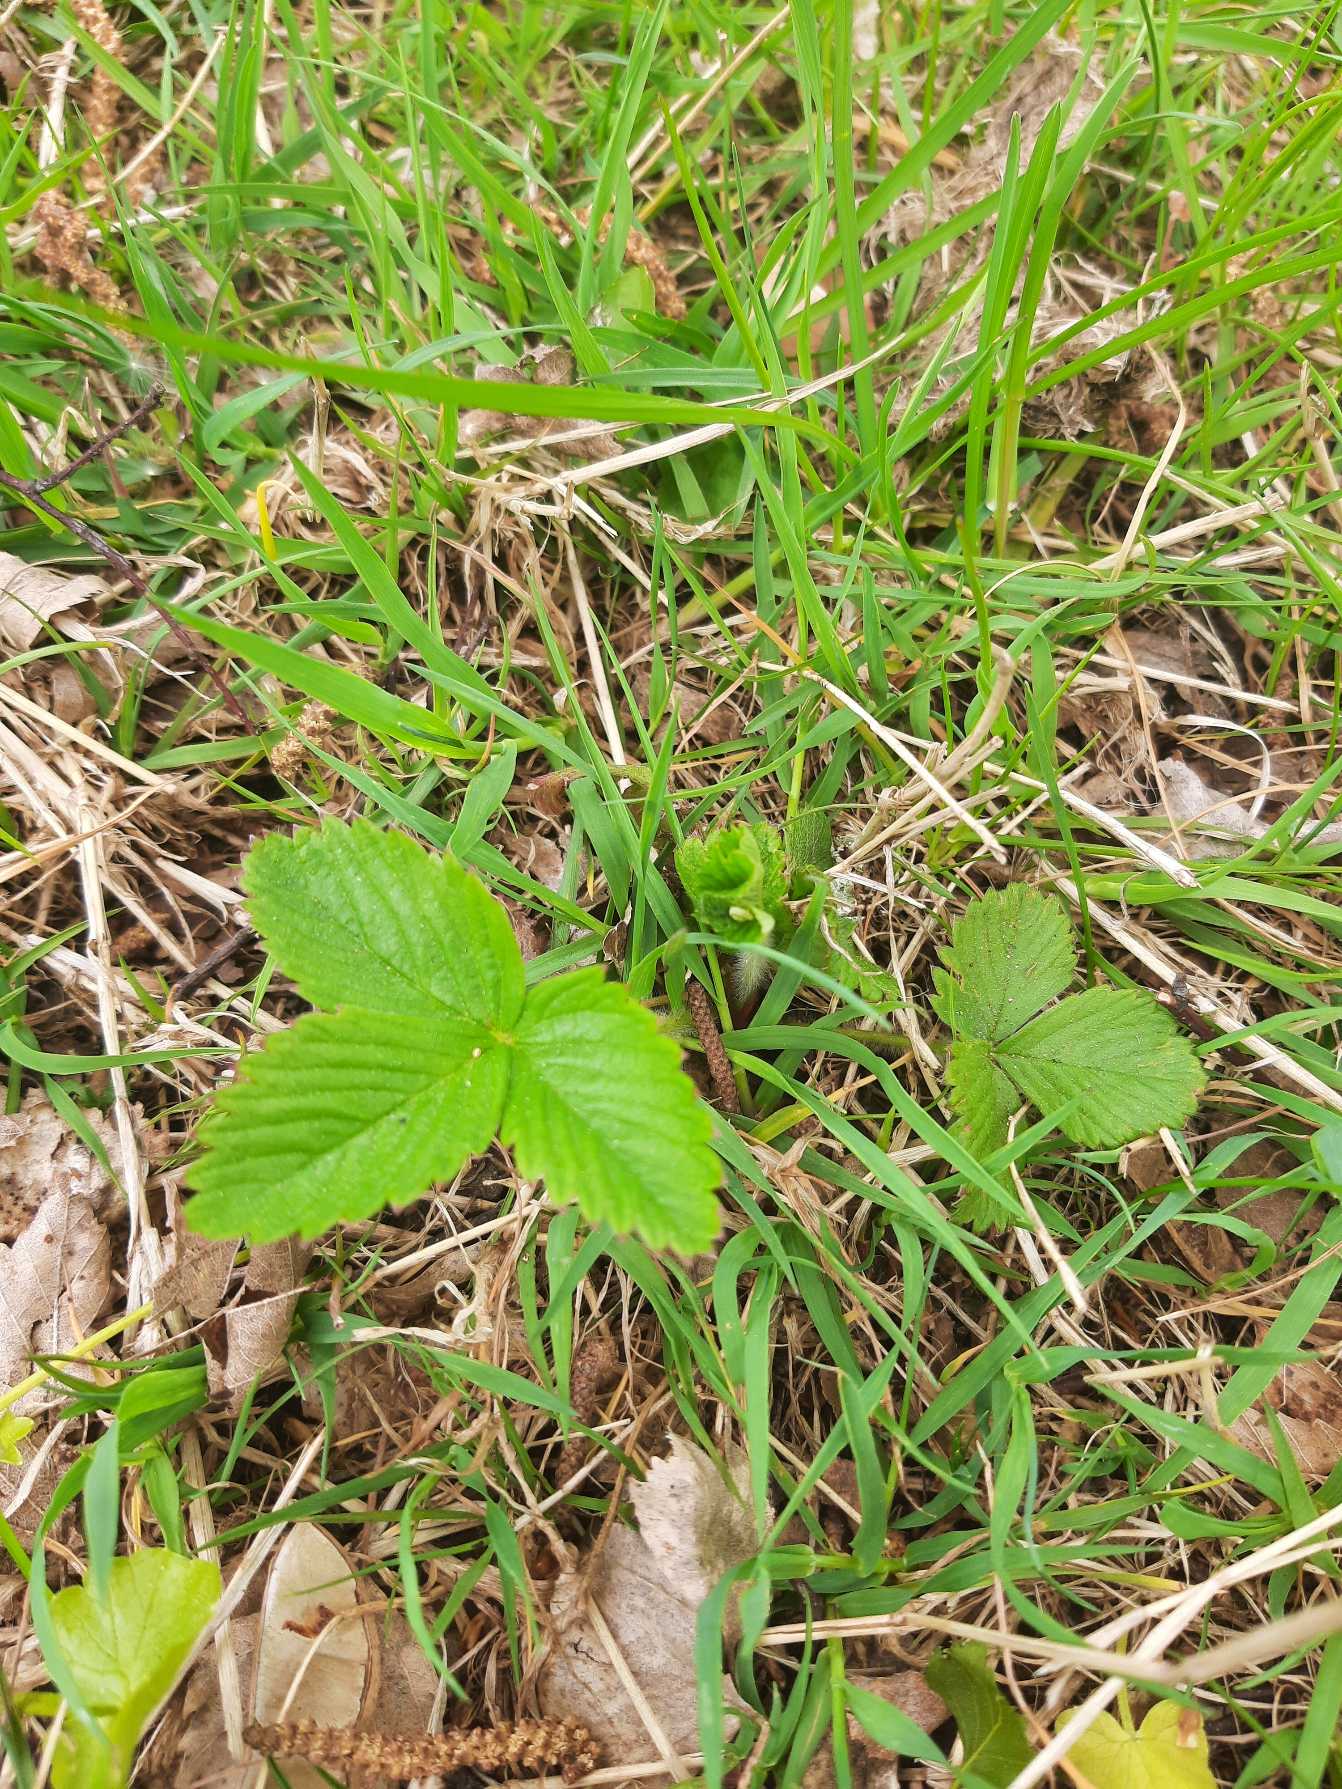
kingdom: Plantae
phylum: Tracheophyta
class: Magnoliopsida
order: Rosales
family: Rosaceae
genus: Fragaria
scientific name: Fragaria vesca
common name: Skov-jordbær
